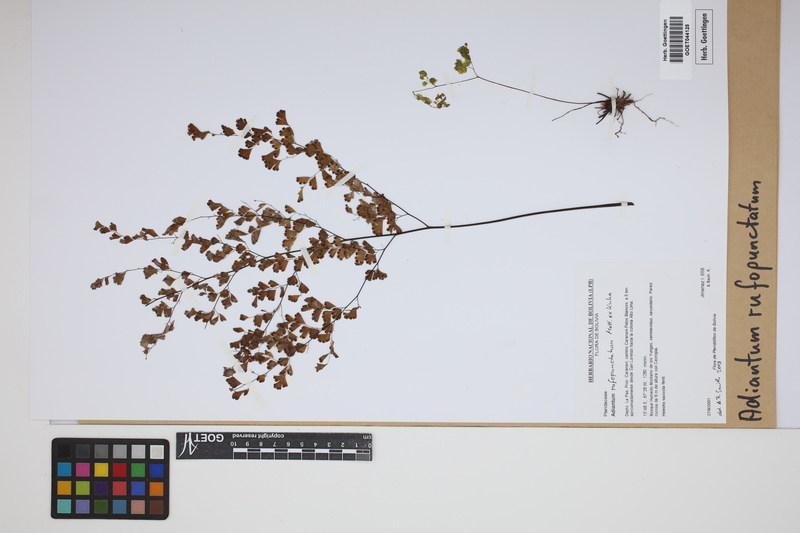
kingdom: Plantae
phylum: Tracheophyta
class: Polypodiopsida
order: Polypodiales
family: Pteridaceae
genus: Adiantum
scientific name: Adiantum rufopunctatum
